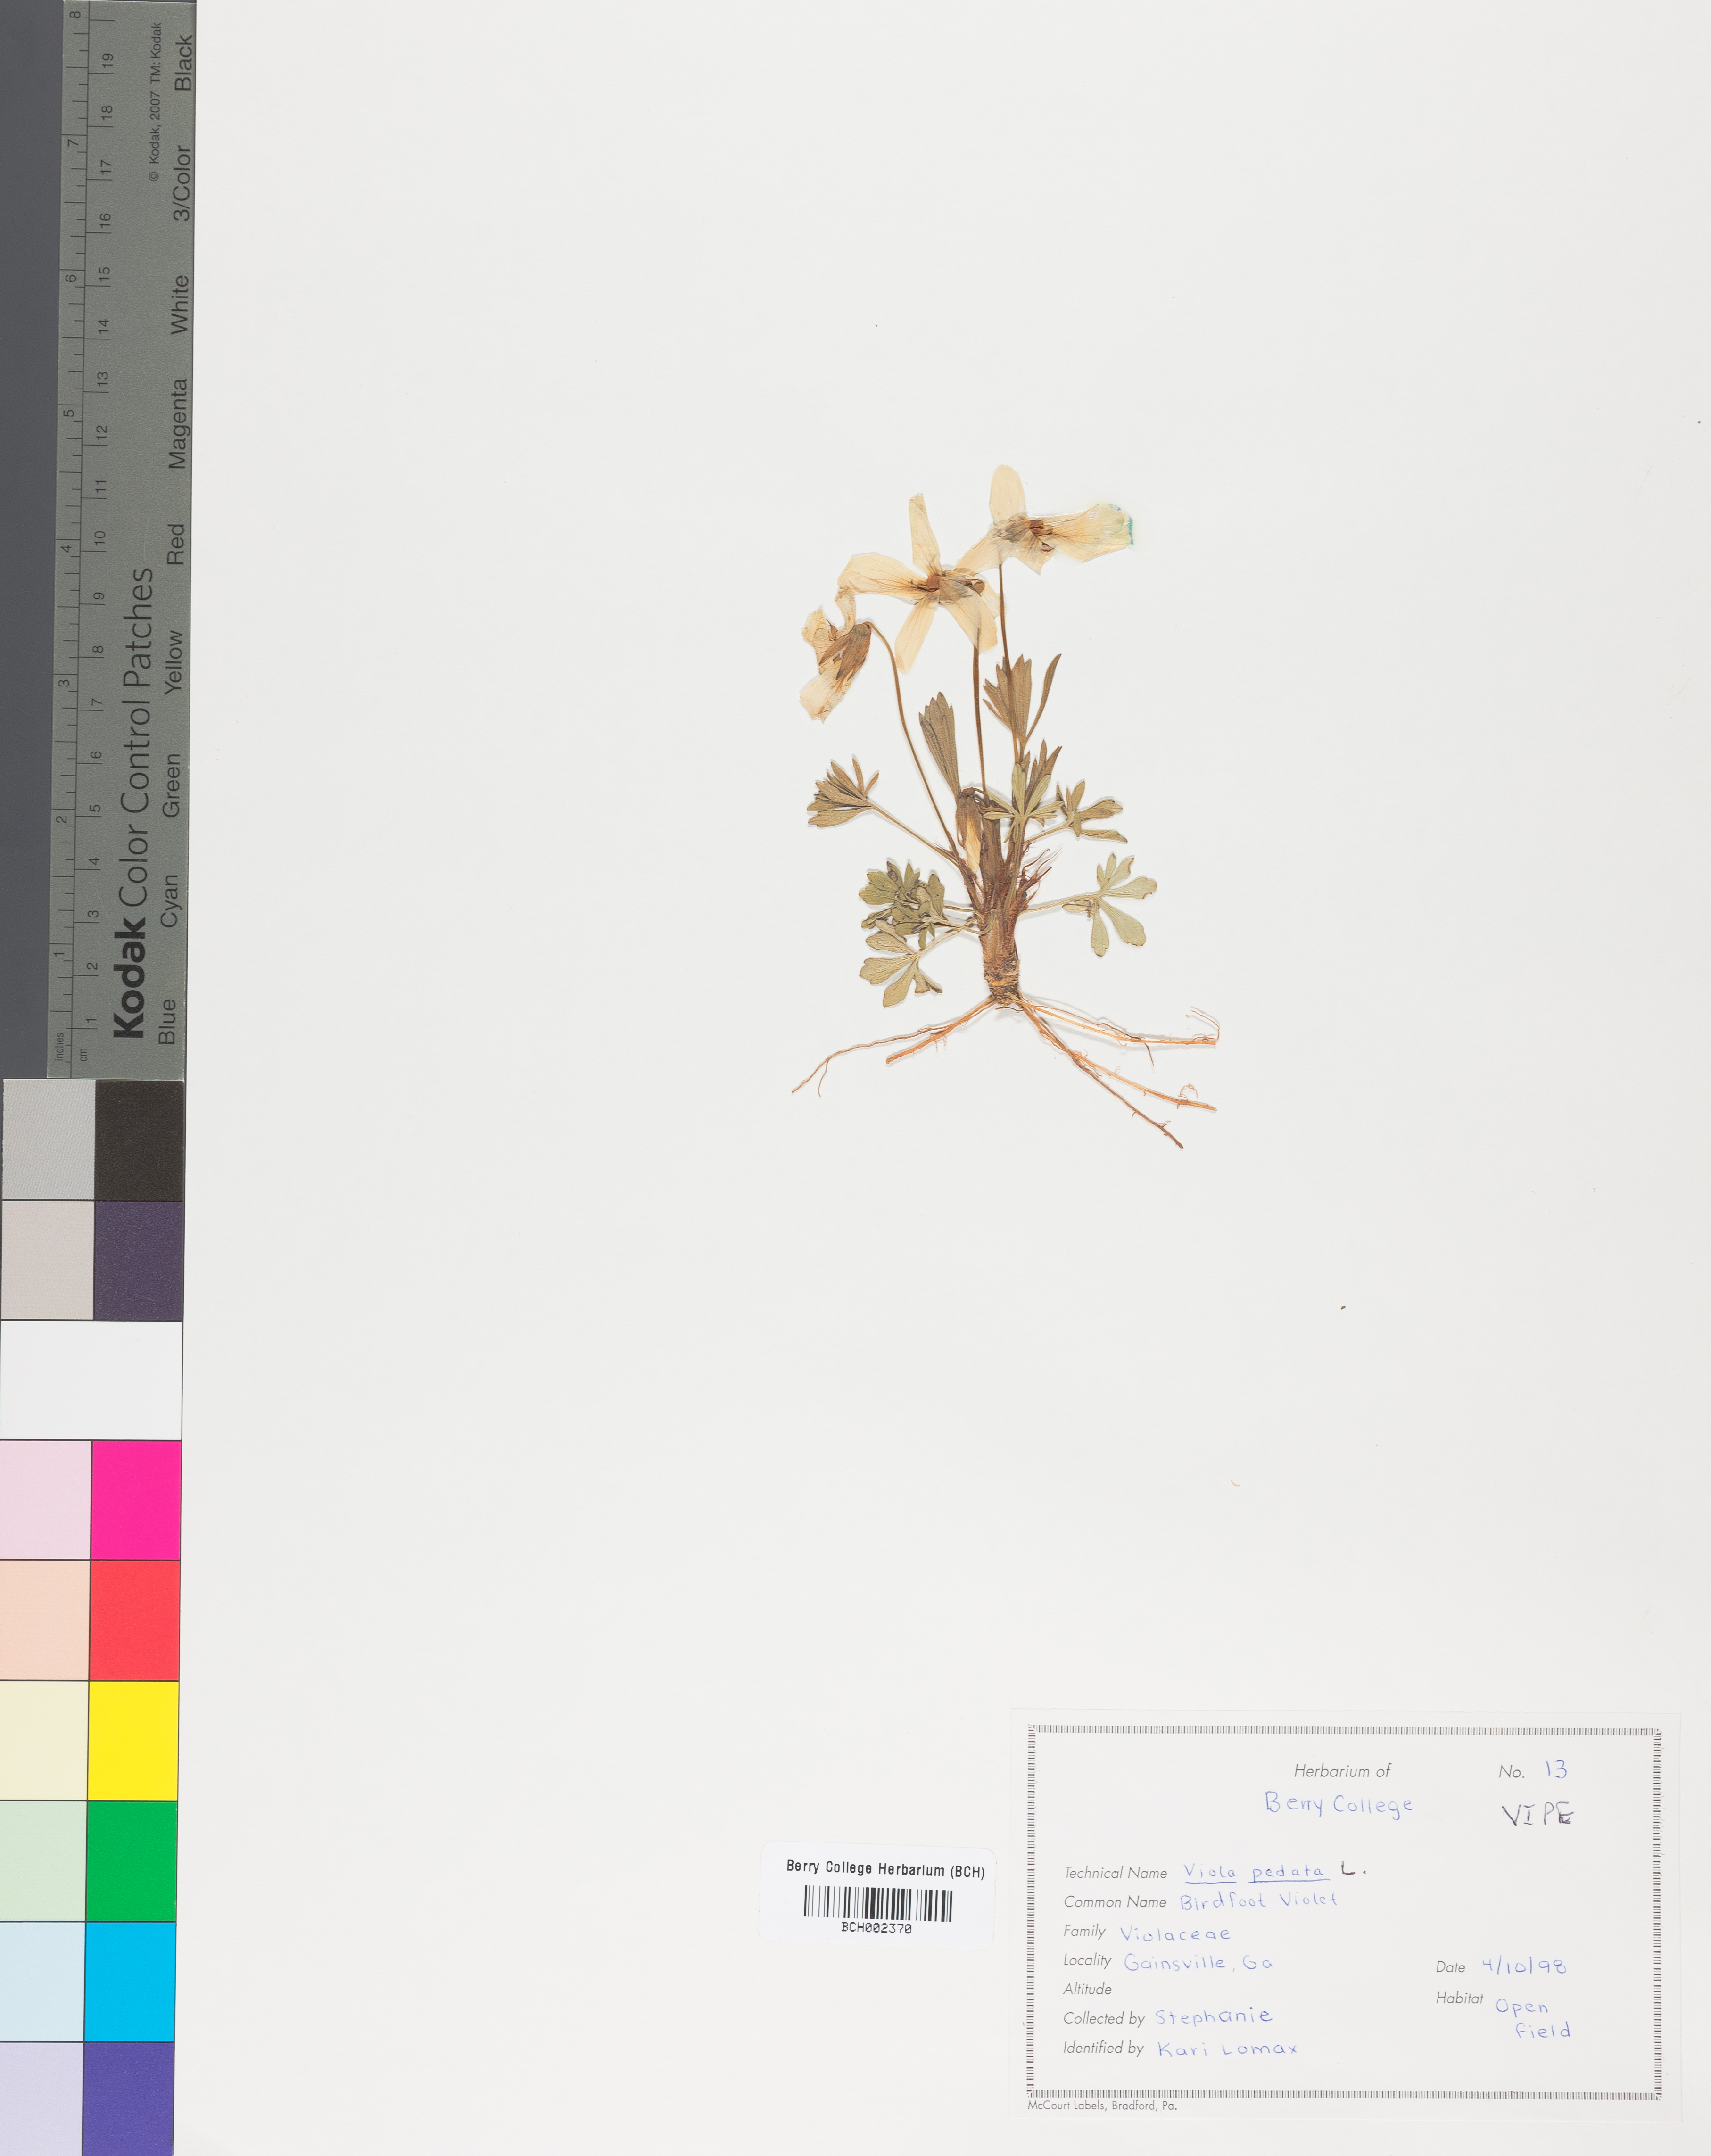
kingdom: Plantae
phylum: Tracheophyta
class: Magnoliopsida
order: Malpighiales
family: Violaceae
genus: Viola
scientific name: Viola pedata
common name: Pansy violet
